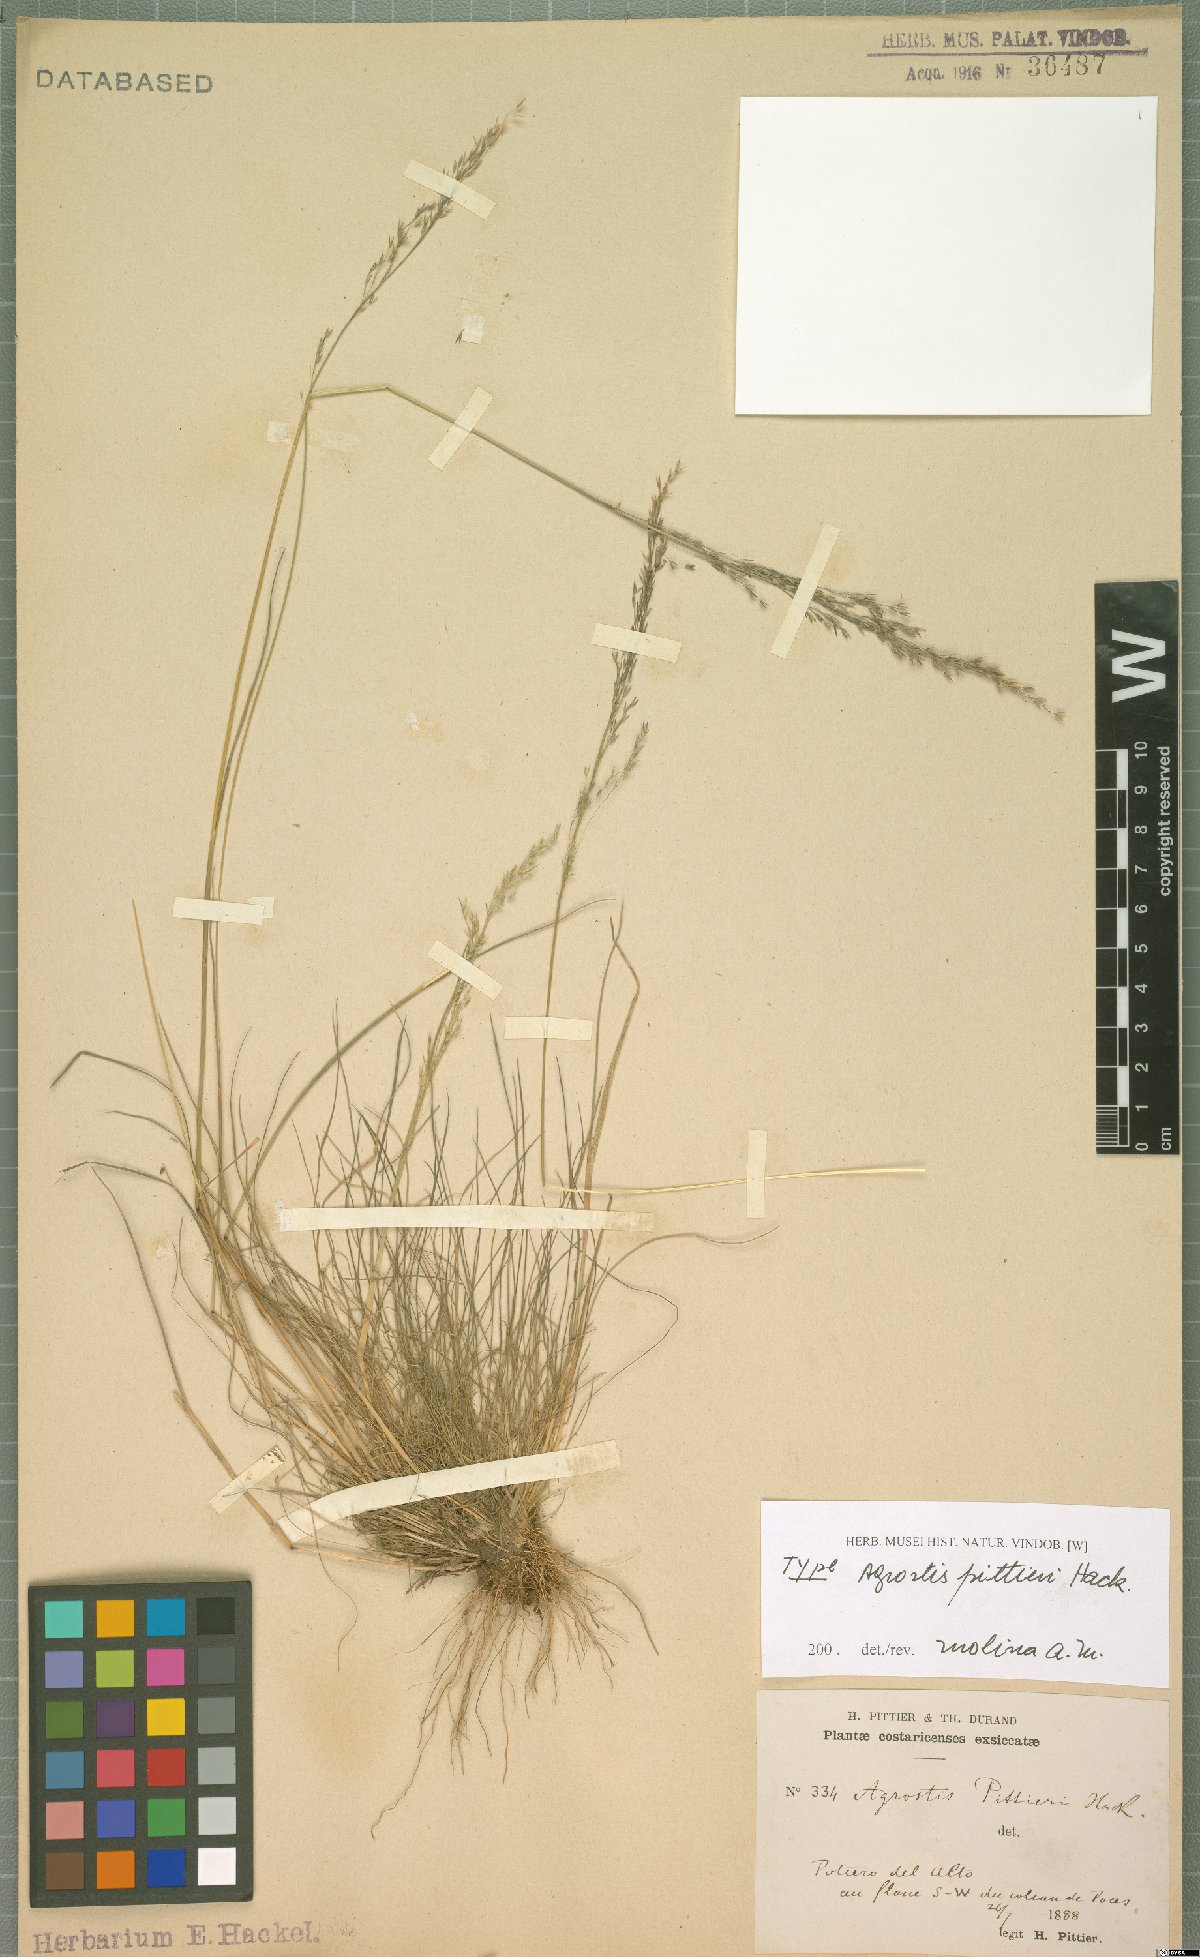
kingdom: Plantae
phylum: Tracheophyta
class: Liliopsida
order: Poales
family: Poaceae
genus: Agrostis
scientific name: Agrostis pittieri
